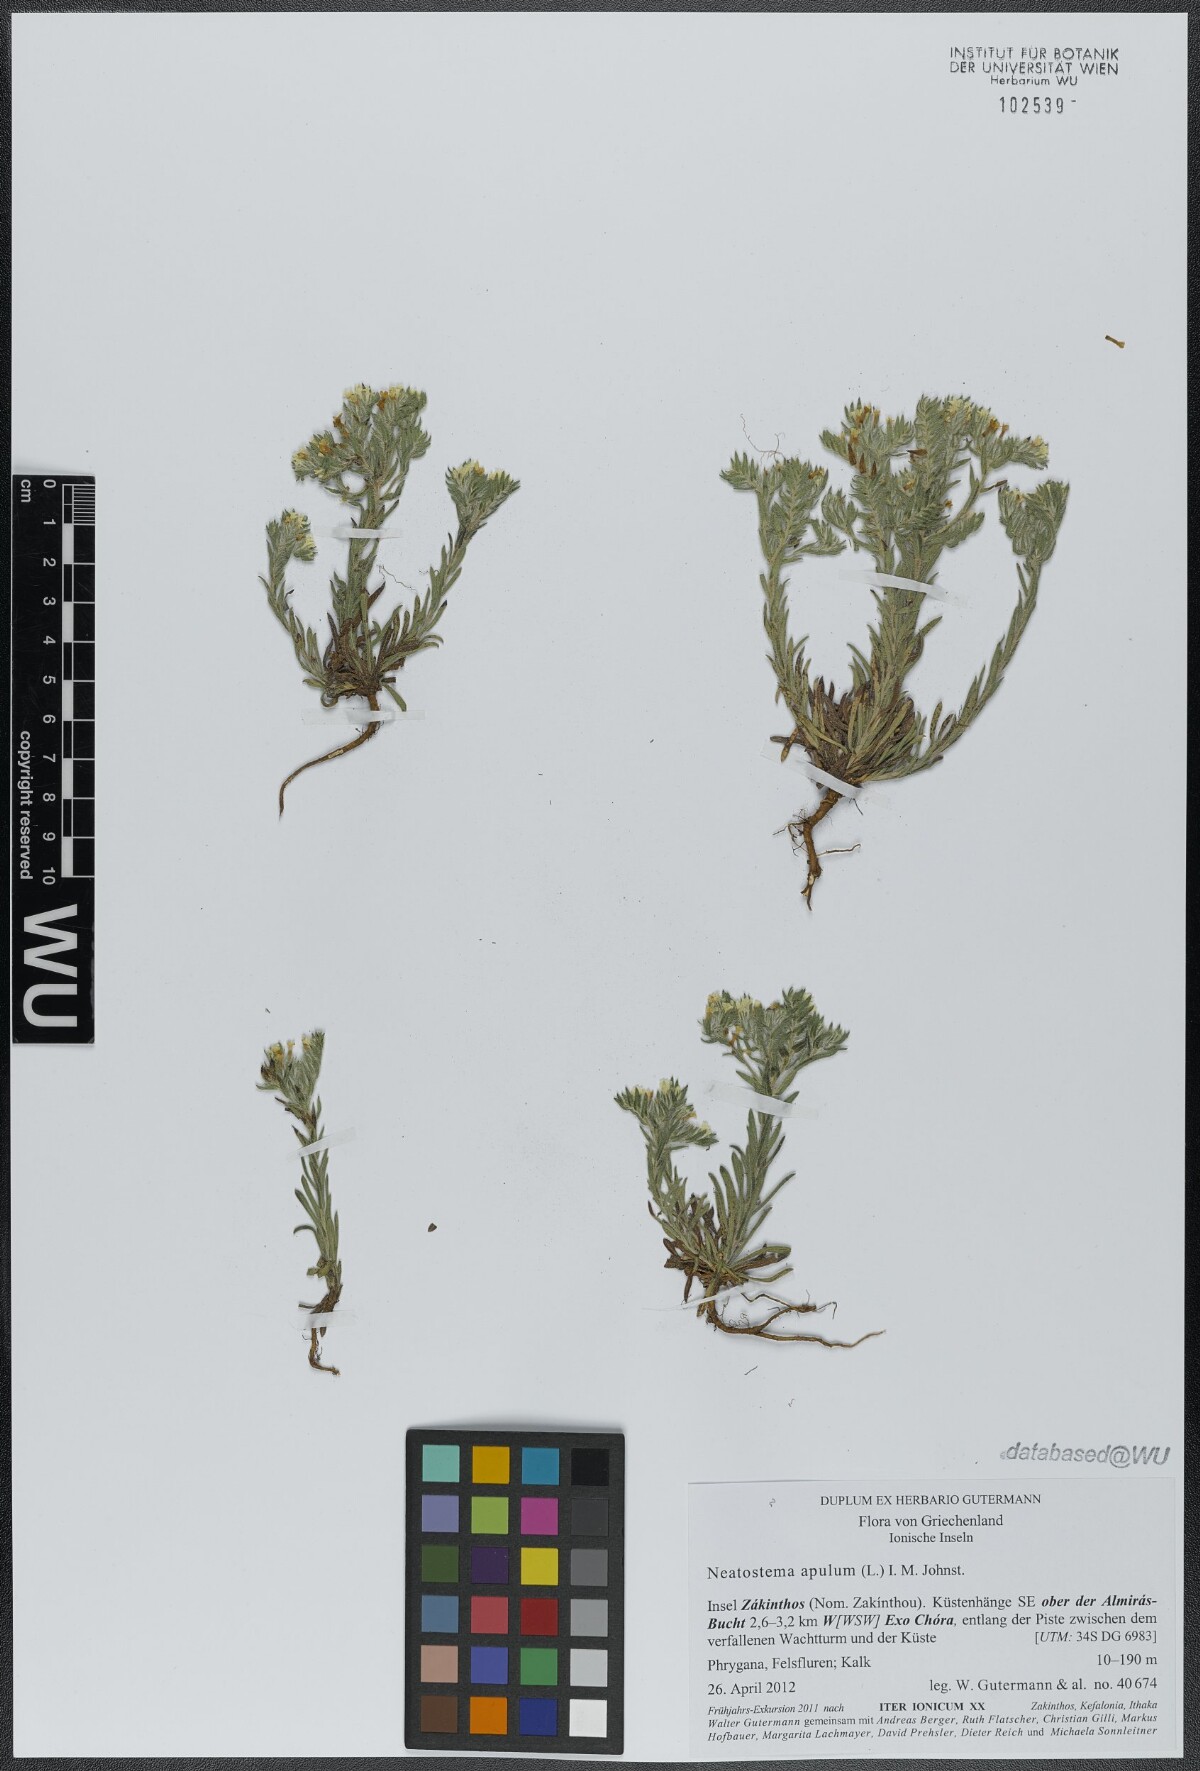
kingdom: Plantae
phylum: Tracheophyta
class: Magnoliopsida
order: Boraginales
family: Boraginaceae
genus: Neatostema
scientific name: Neatostema apulum
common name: Hairy sheepweed
